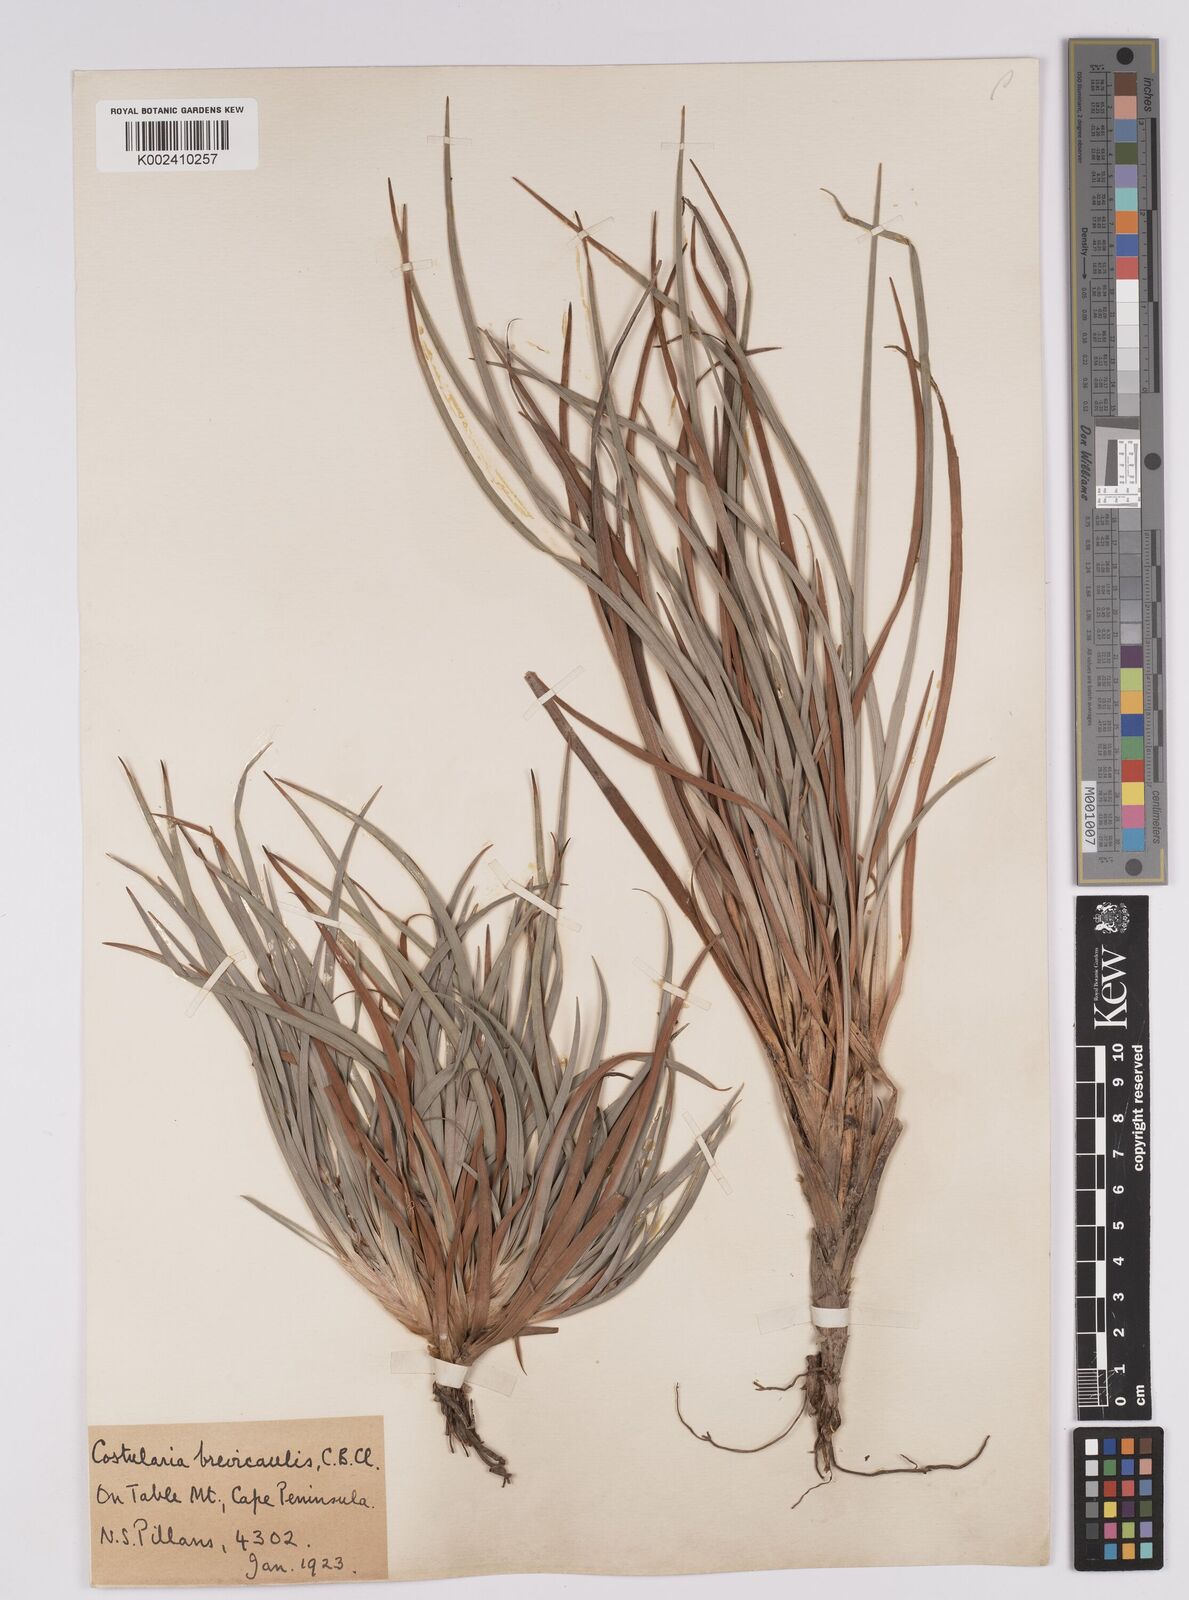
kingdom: Plantae
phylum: Tracheophyta
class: Liliopsida
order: Poales
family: Cyperaceae
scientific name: Cyperaceae
